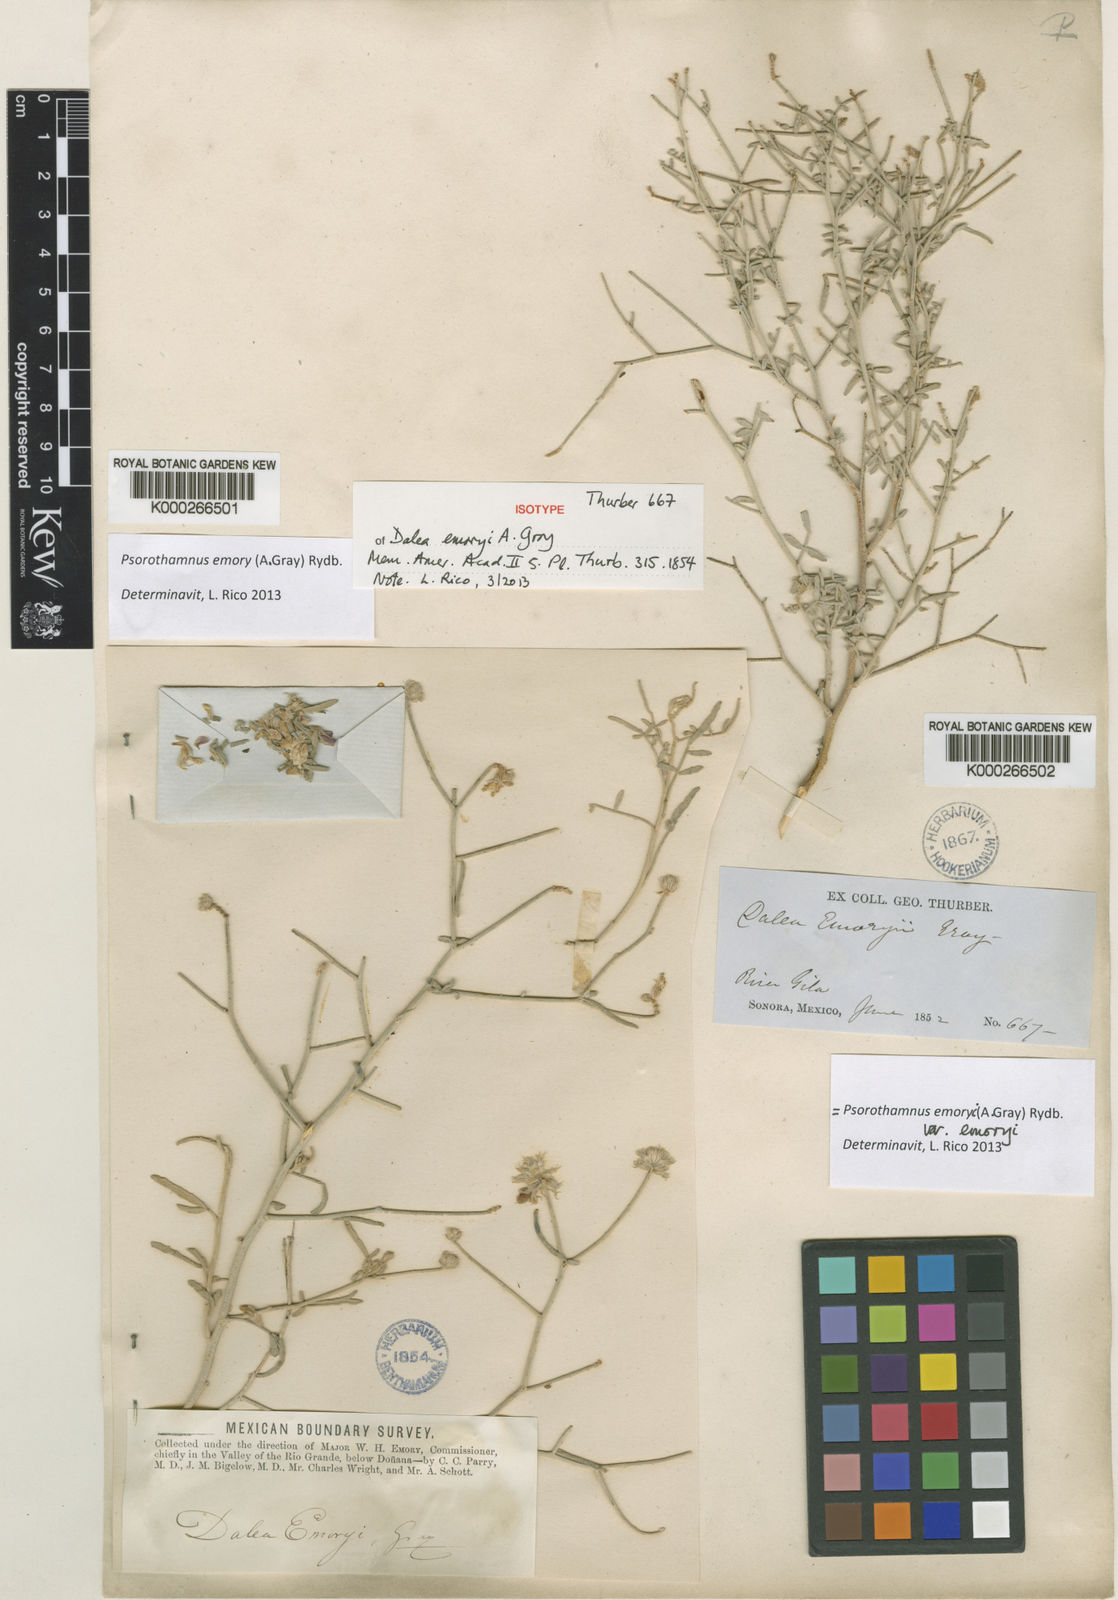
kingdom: Plantae
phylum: Tracheophyta
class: Magnoliopsida
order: Fabales
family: Fabaceae
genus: Psorothamnus
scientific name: Psorothamnus emoryi
